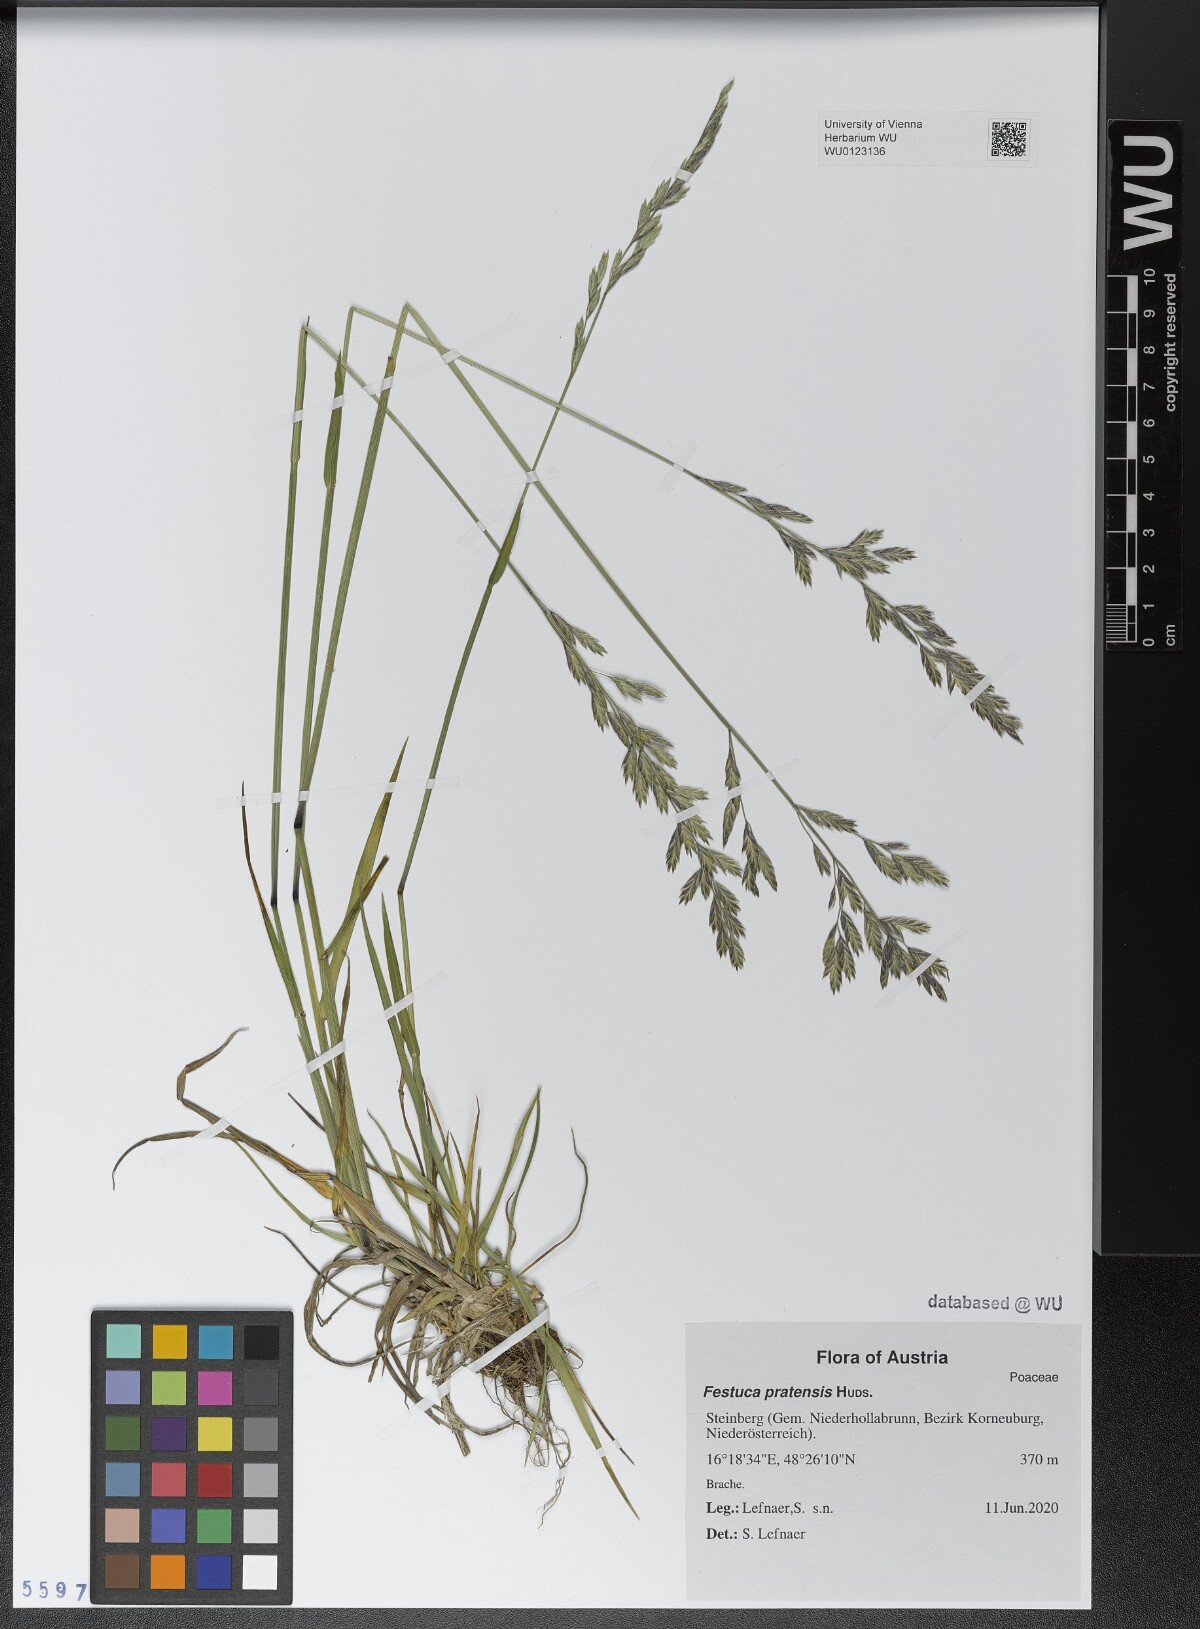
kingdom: Plantae
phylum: Tracheophyta
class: Liliopsida
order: Poales
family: Poaceae
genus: Lolium
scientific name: Lolium pratense
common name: Dover grass
